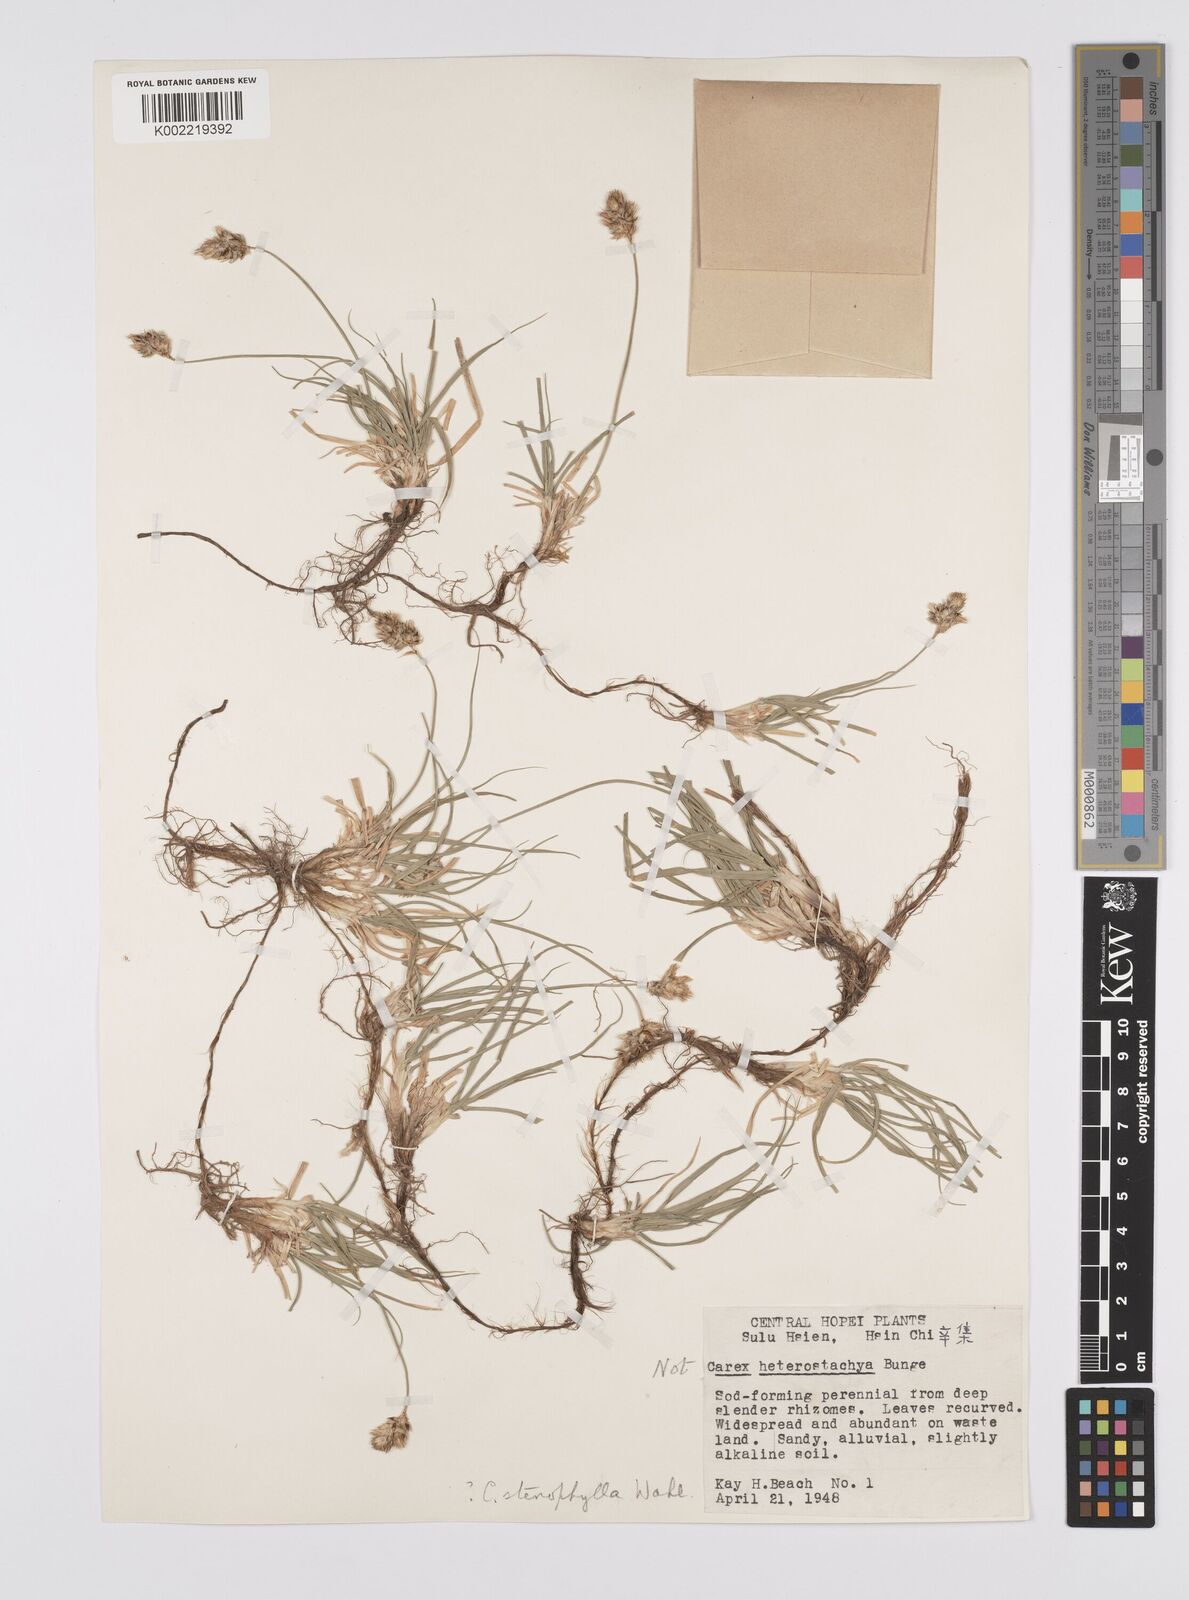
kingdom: Plantae
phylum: Tracheophyta
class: Liliopsida
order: Poales
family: Cyperaceae
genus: Carex
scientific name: Carex stenophylla
